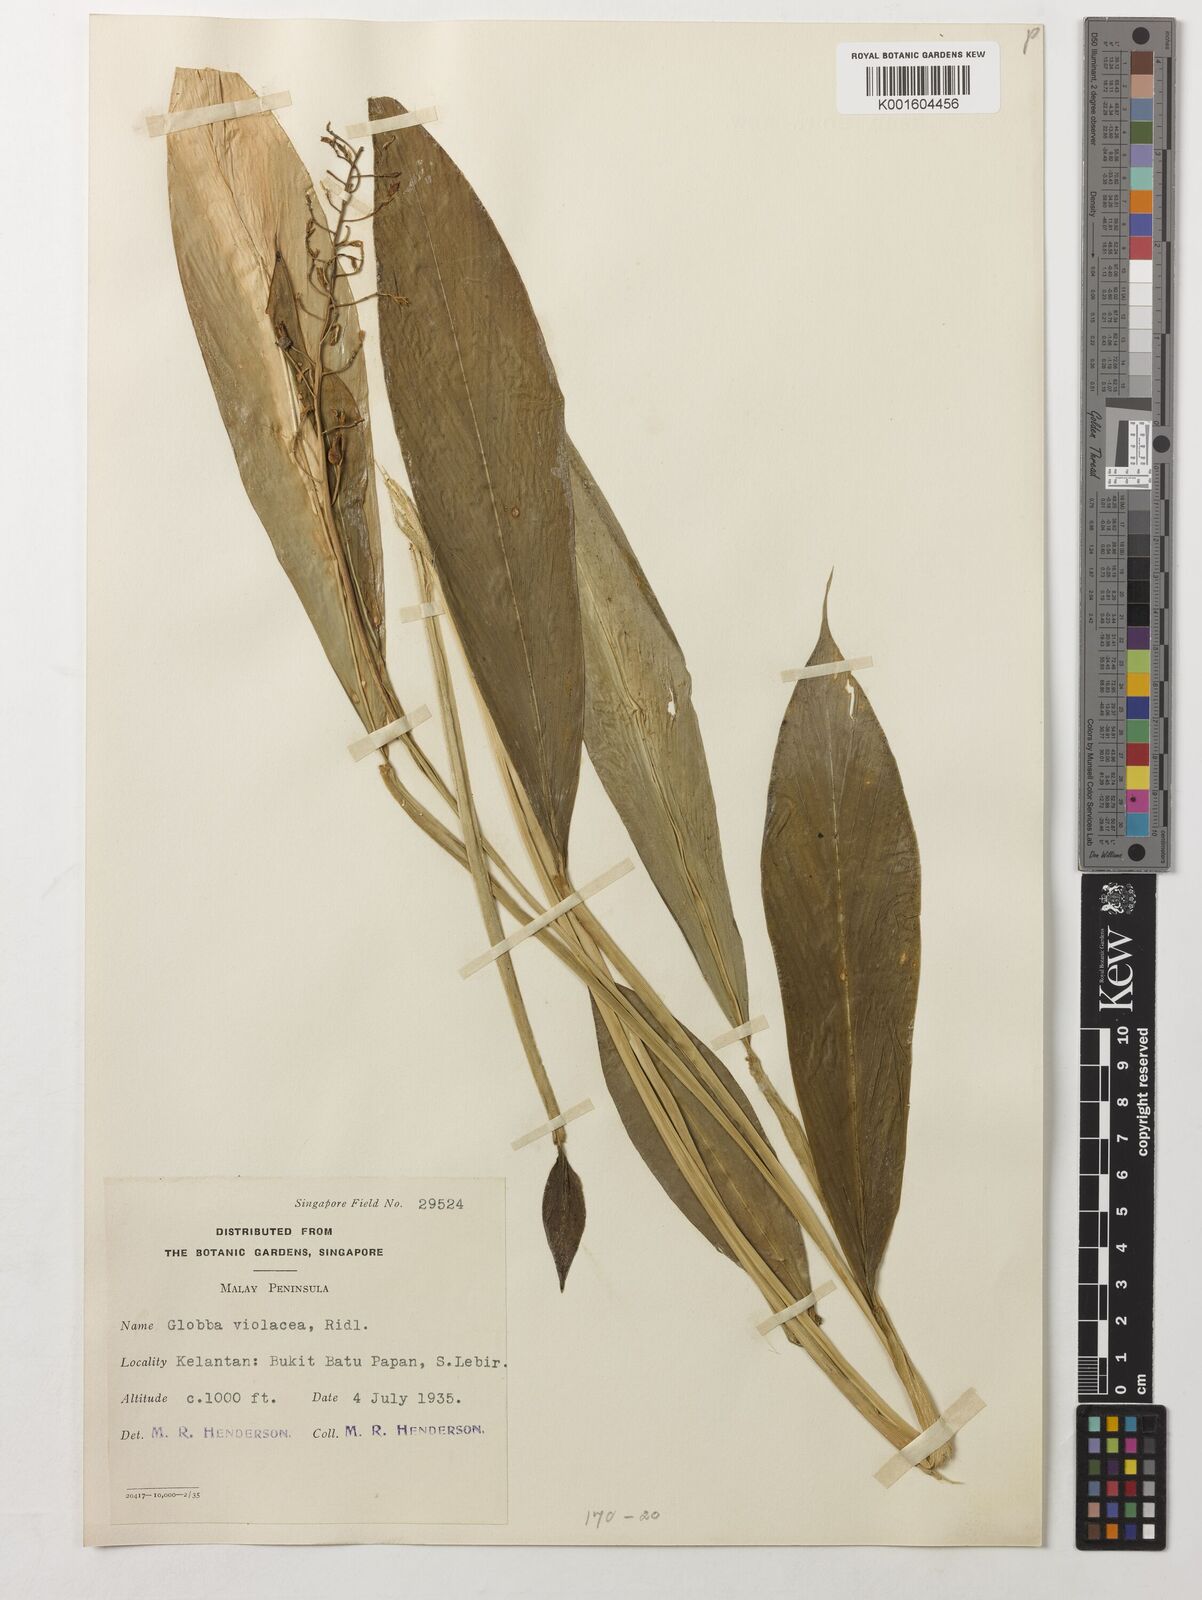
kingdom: Plantae
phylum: Tracheophyta
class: Liliopsida
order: Zingiberales
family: Zingiberaceae
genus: Globba
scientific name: Globba leucantha
